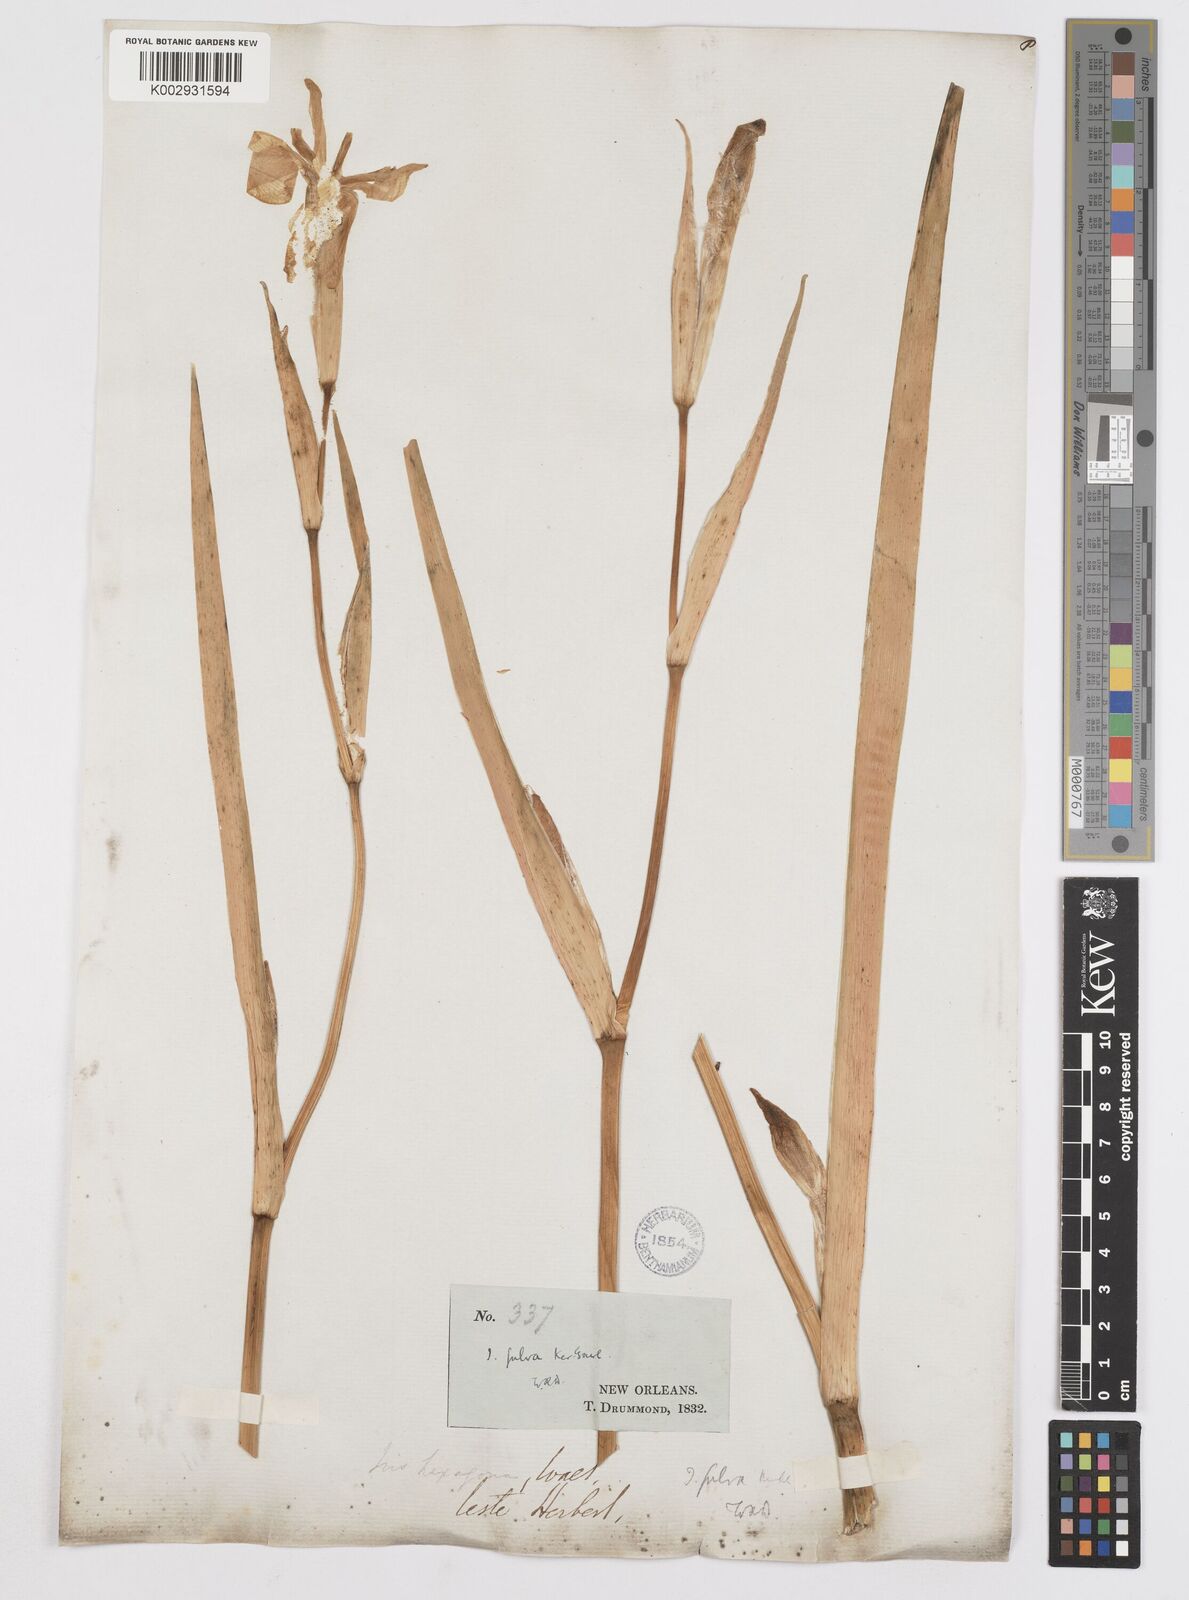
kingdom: Plantae
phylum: Tracheophyta
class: Liliopsida
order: Asparagales
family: Iridaceae
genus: Iris
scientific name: Iris fulva
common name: Copper iris
